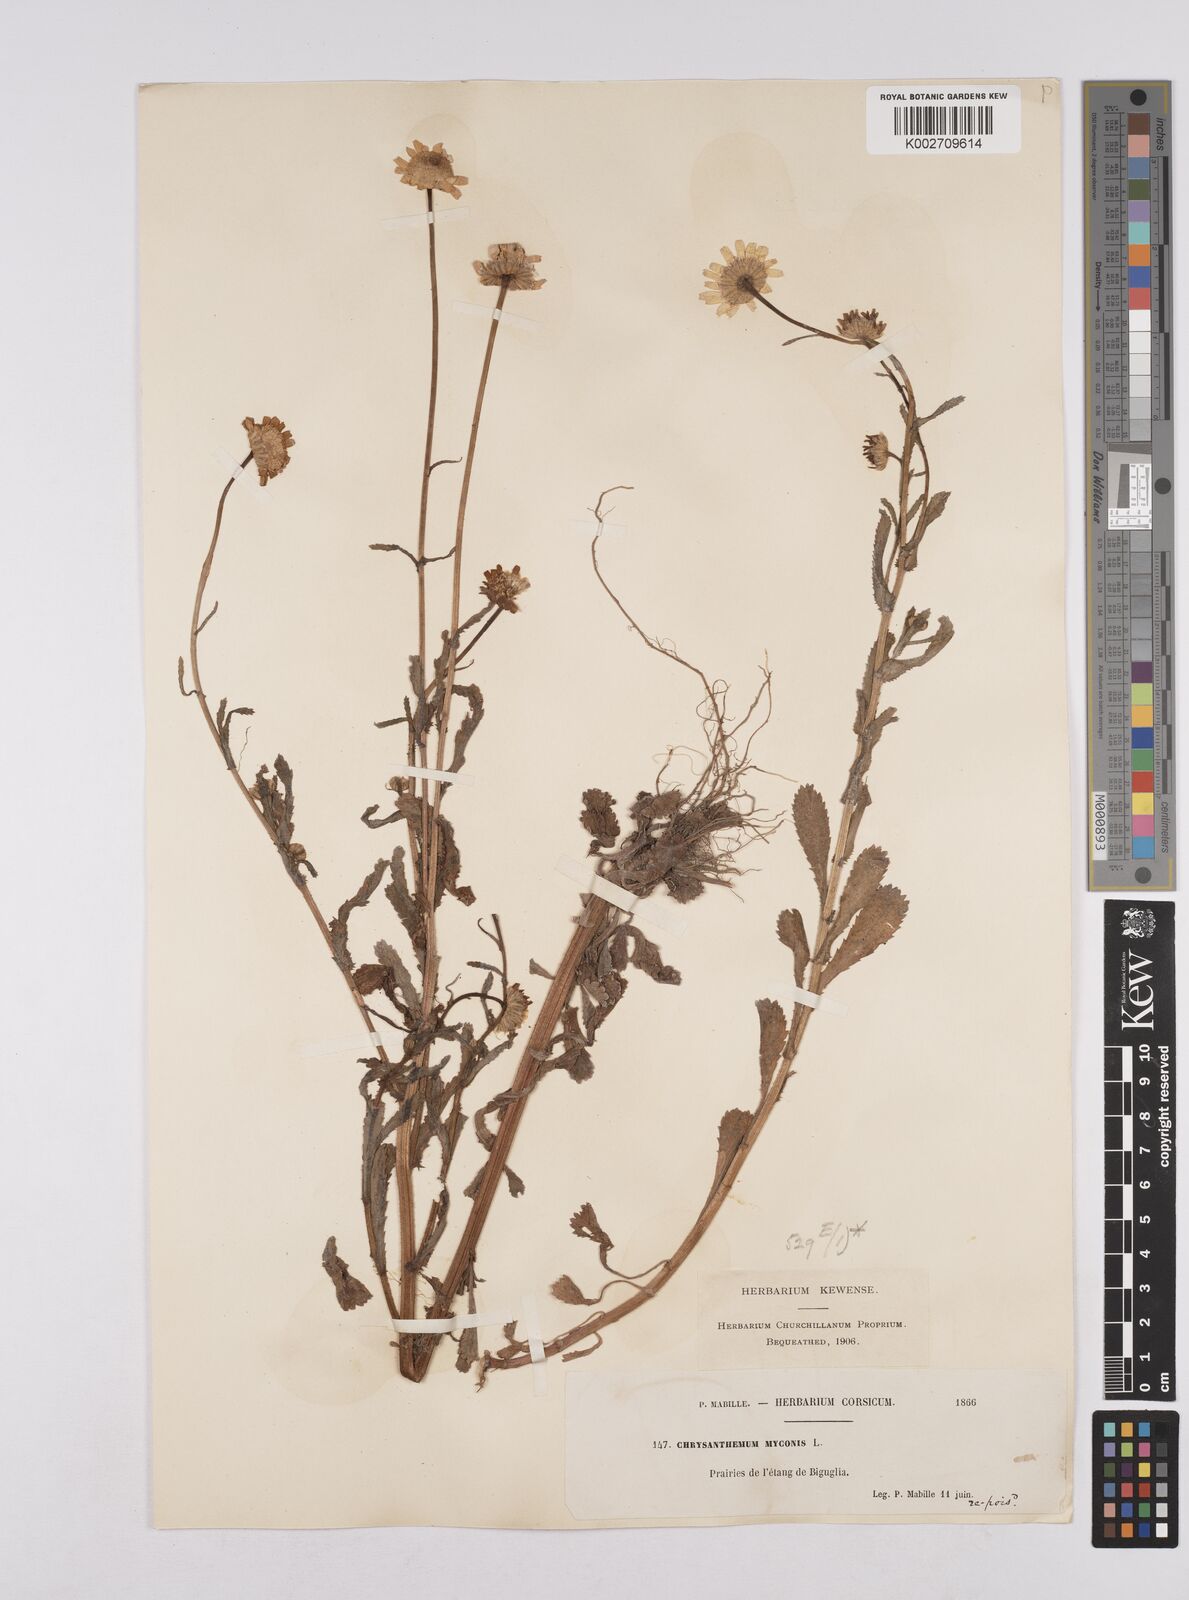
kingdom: Plantae
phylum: Tracheophyta
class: Magnoliopsida
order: Asterales
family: Asteraceae
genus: Coleostephus
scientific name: Coleostephus myconis
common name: Mediterranean marigold
